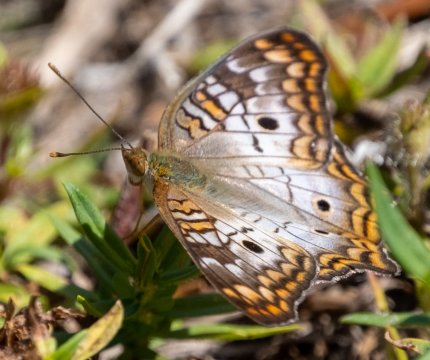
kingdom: Animalia
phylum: Arthropoda
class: Insecta
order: Lepidoptera
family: Nymphalidae
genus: Anartia
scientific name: Anartia jatrophae
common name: White Peacock
